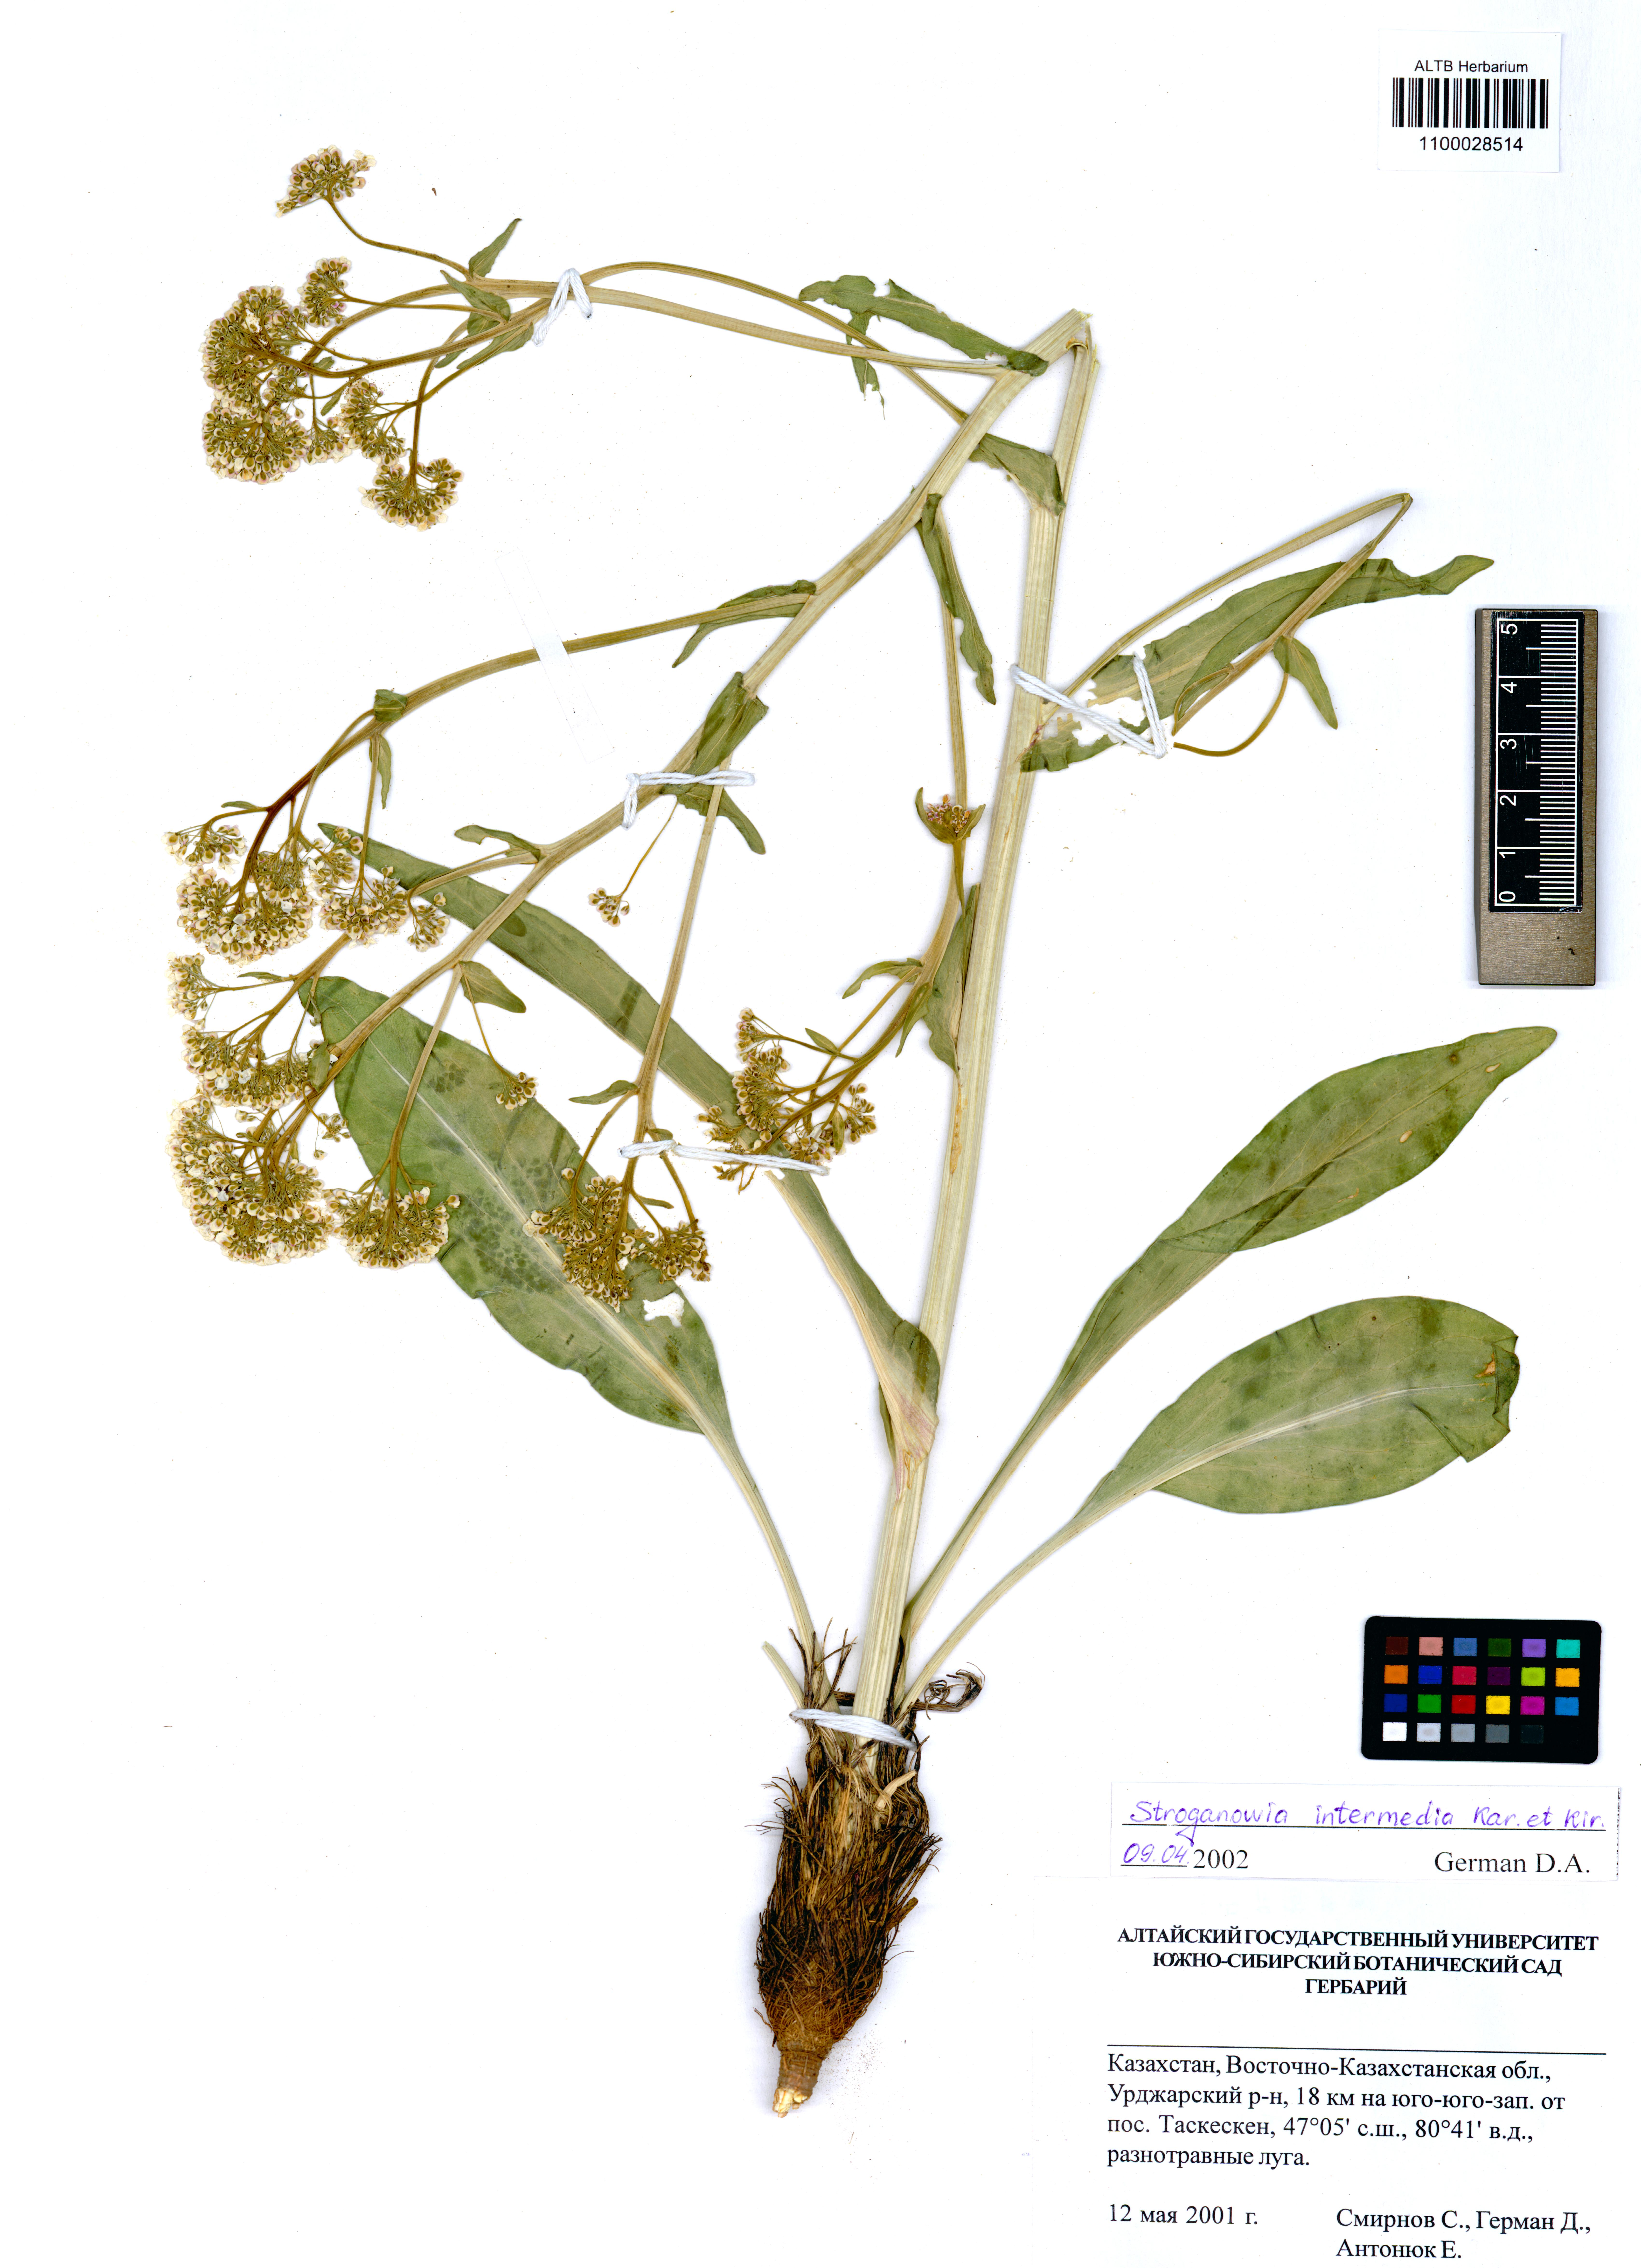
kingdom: Plantae
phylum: Tracheophyta
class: Magnoliopsida
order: Brassicales
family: Brassicaceae
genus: Lepidium
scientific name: Lepidium karelinianum
